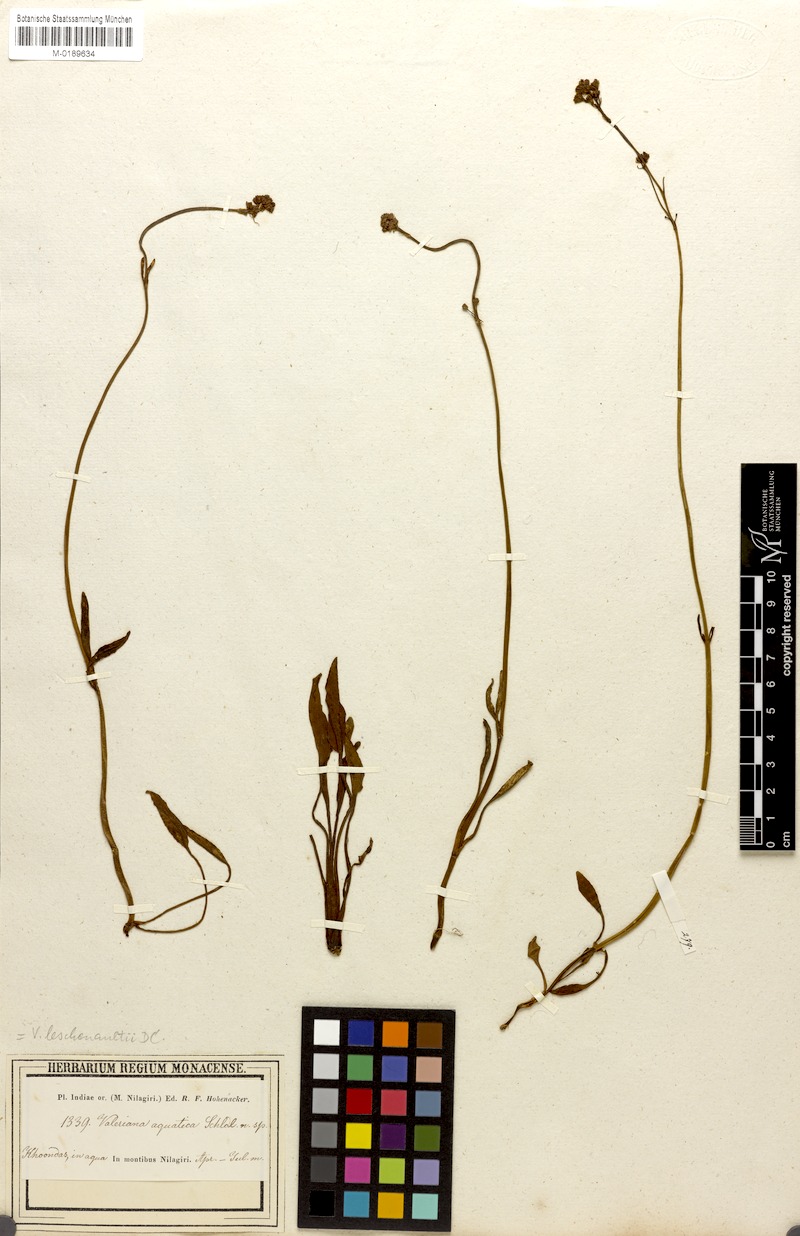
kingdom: Plantae
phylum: Tracheophyta
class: Magnoliopsida
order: Dipsacales
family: Caprifoliaceae
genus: Valeriana
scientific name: Valeriana leschenaultii
